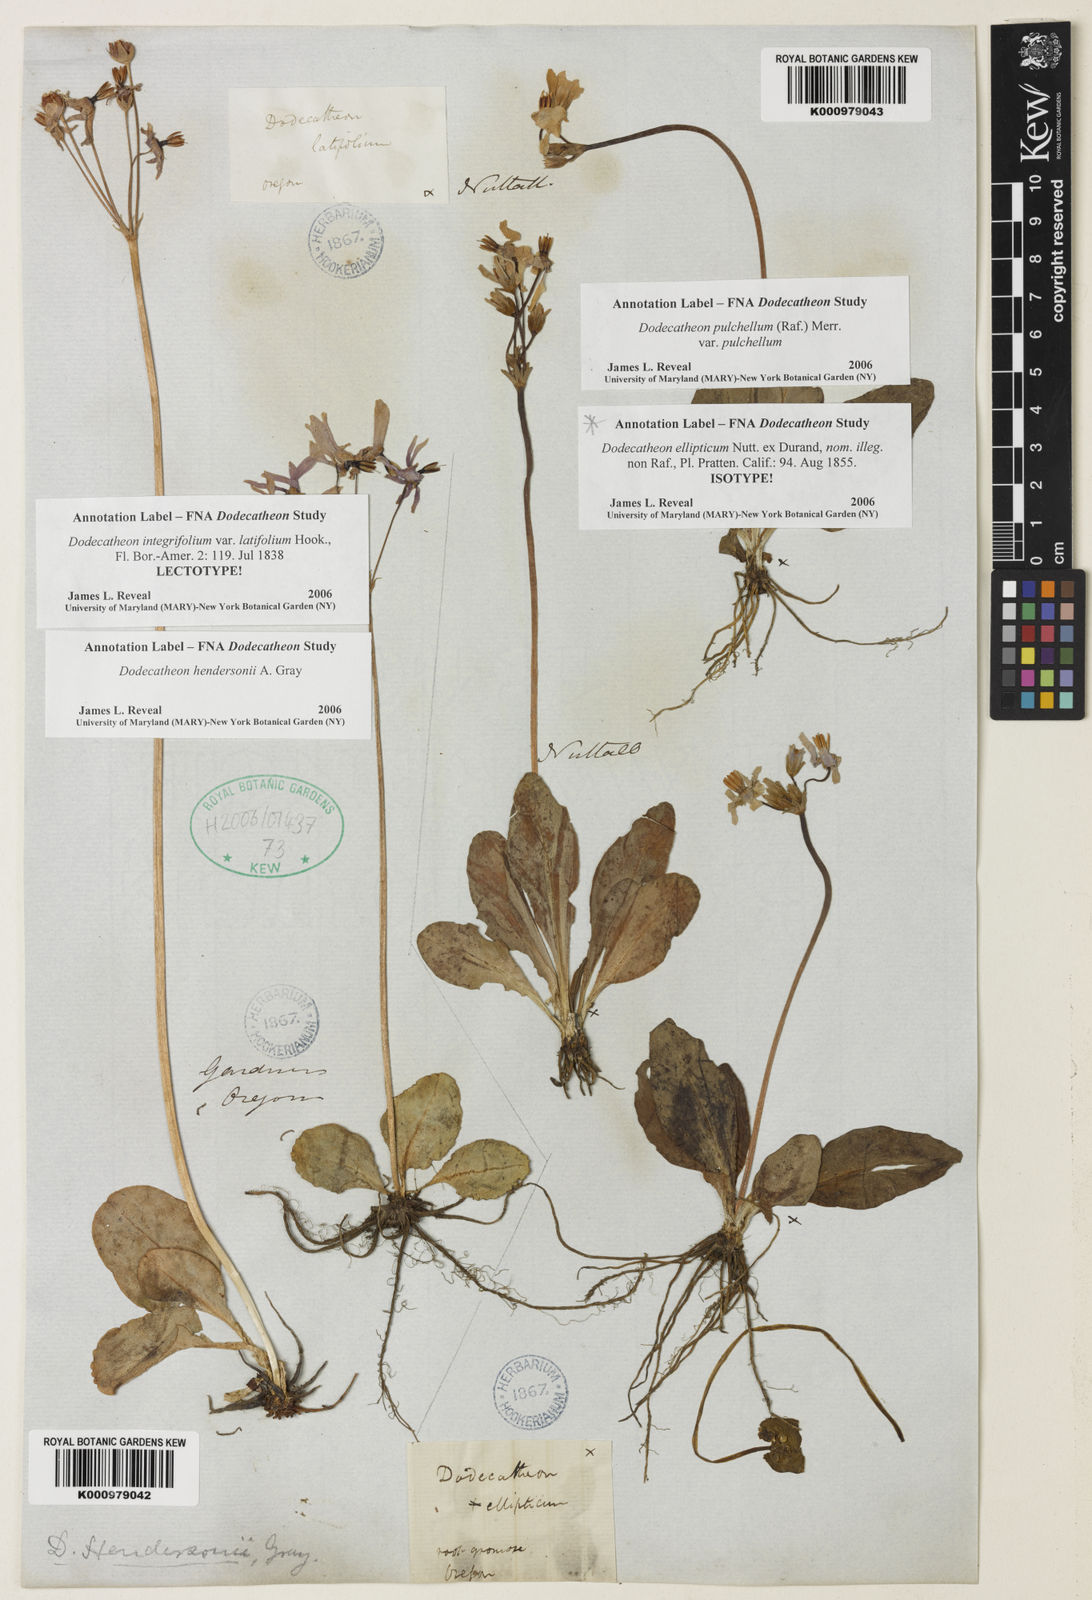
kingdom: Plantae
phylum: Tracheophyta
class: Magnoliopsida
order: Ericales
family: Primulaceae
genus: Dodecatheon
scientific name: Dodecatheon hendersonii
